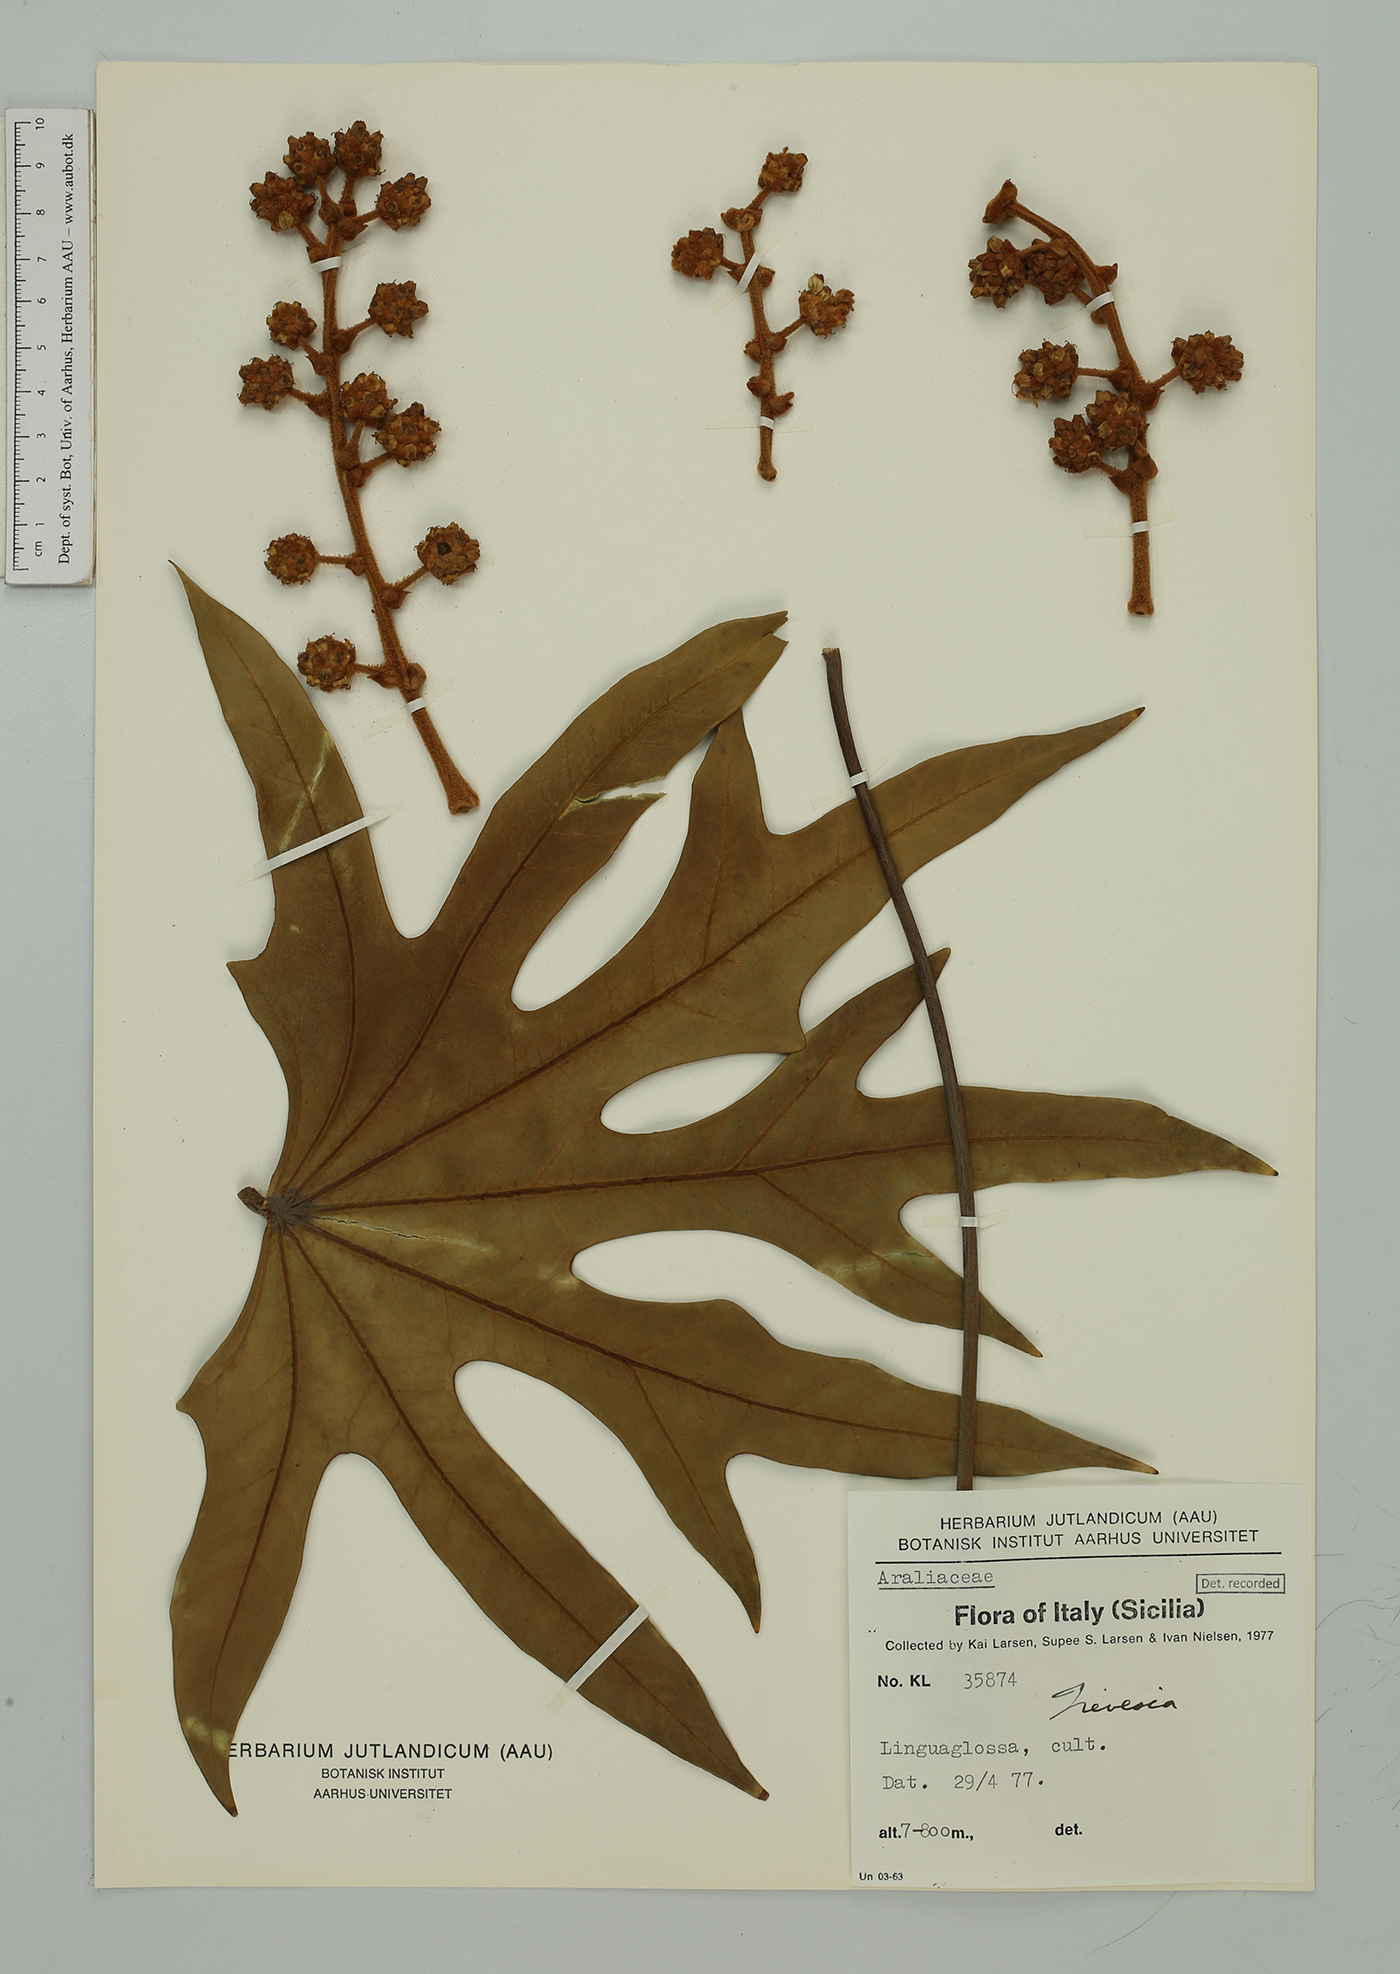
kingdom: Plantae
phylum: Tracheophyta
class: Magnoliopsida
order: Apiales
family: Araliaceae
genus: Trevesia
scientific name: Trevesia
